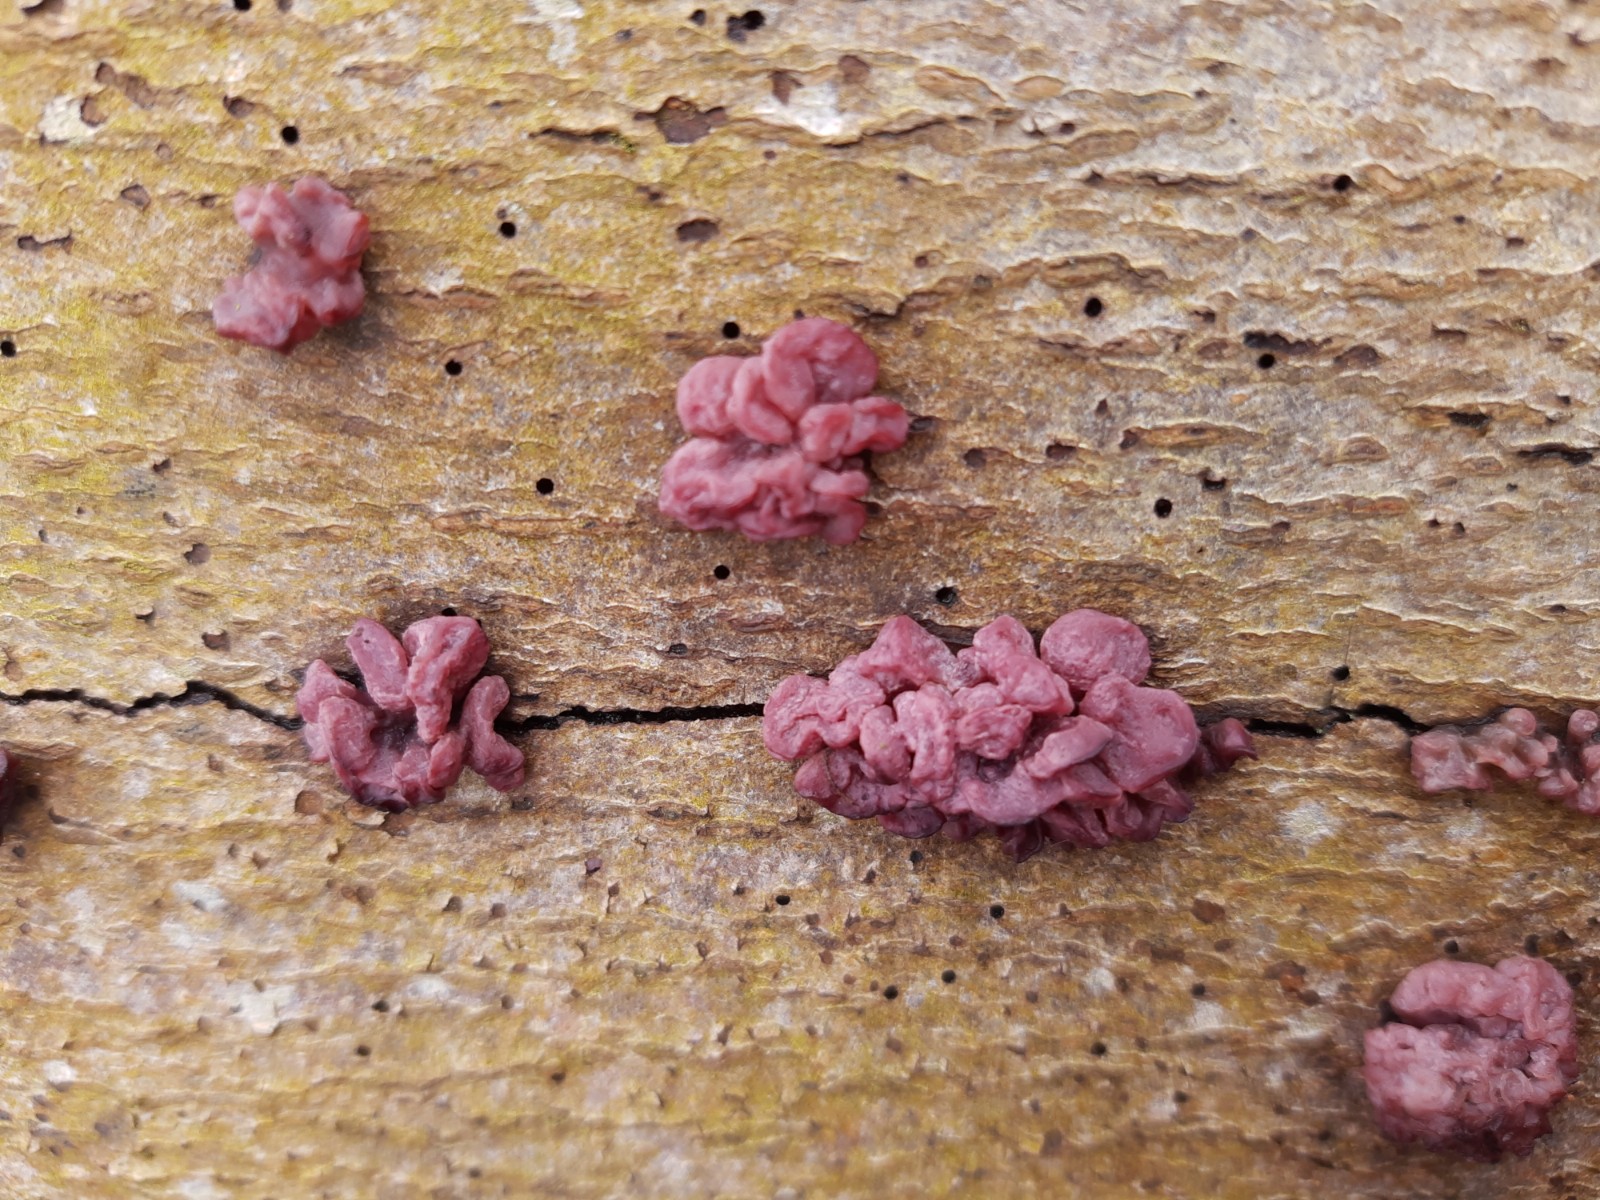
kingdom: Fungi
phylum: Ascomycota
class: Leotiomycetes
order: Helotiales
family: Gelatinodiscaceae
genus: Ascocoryne
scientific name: Ascocoryne sarcoides
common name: rødlilla sejskive
